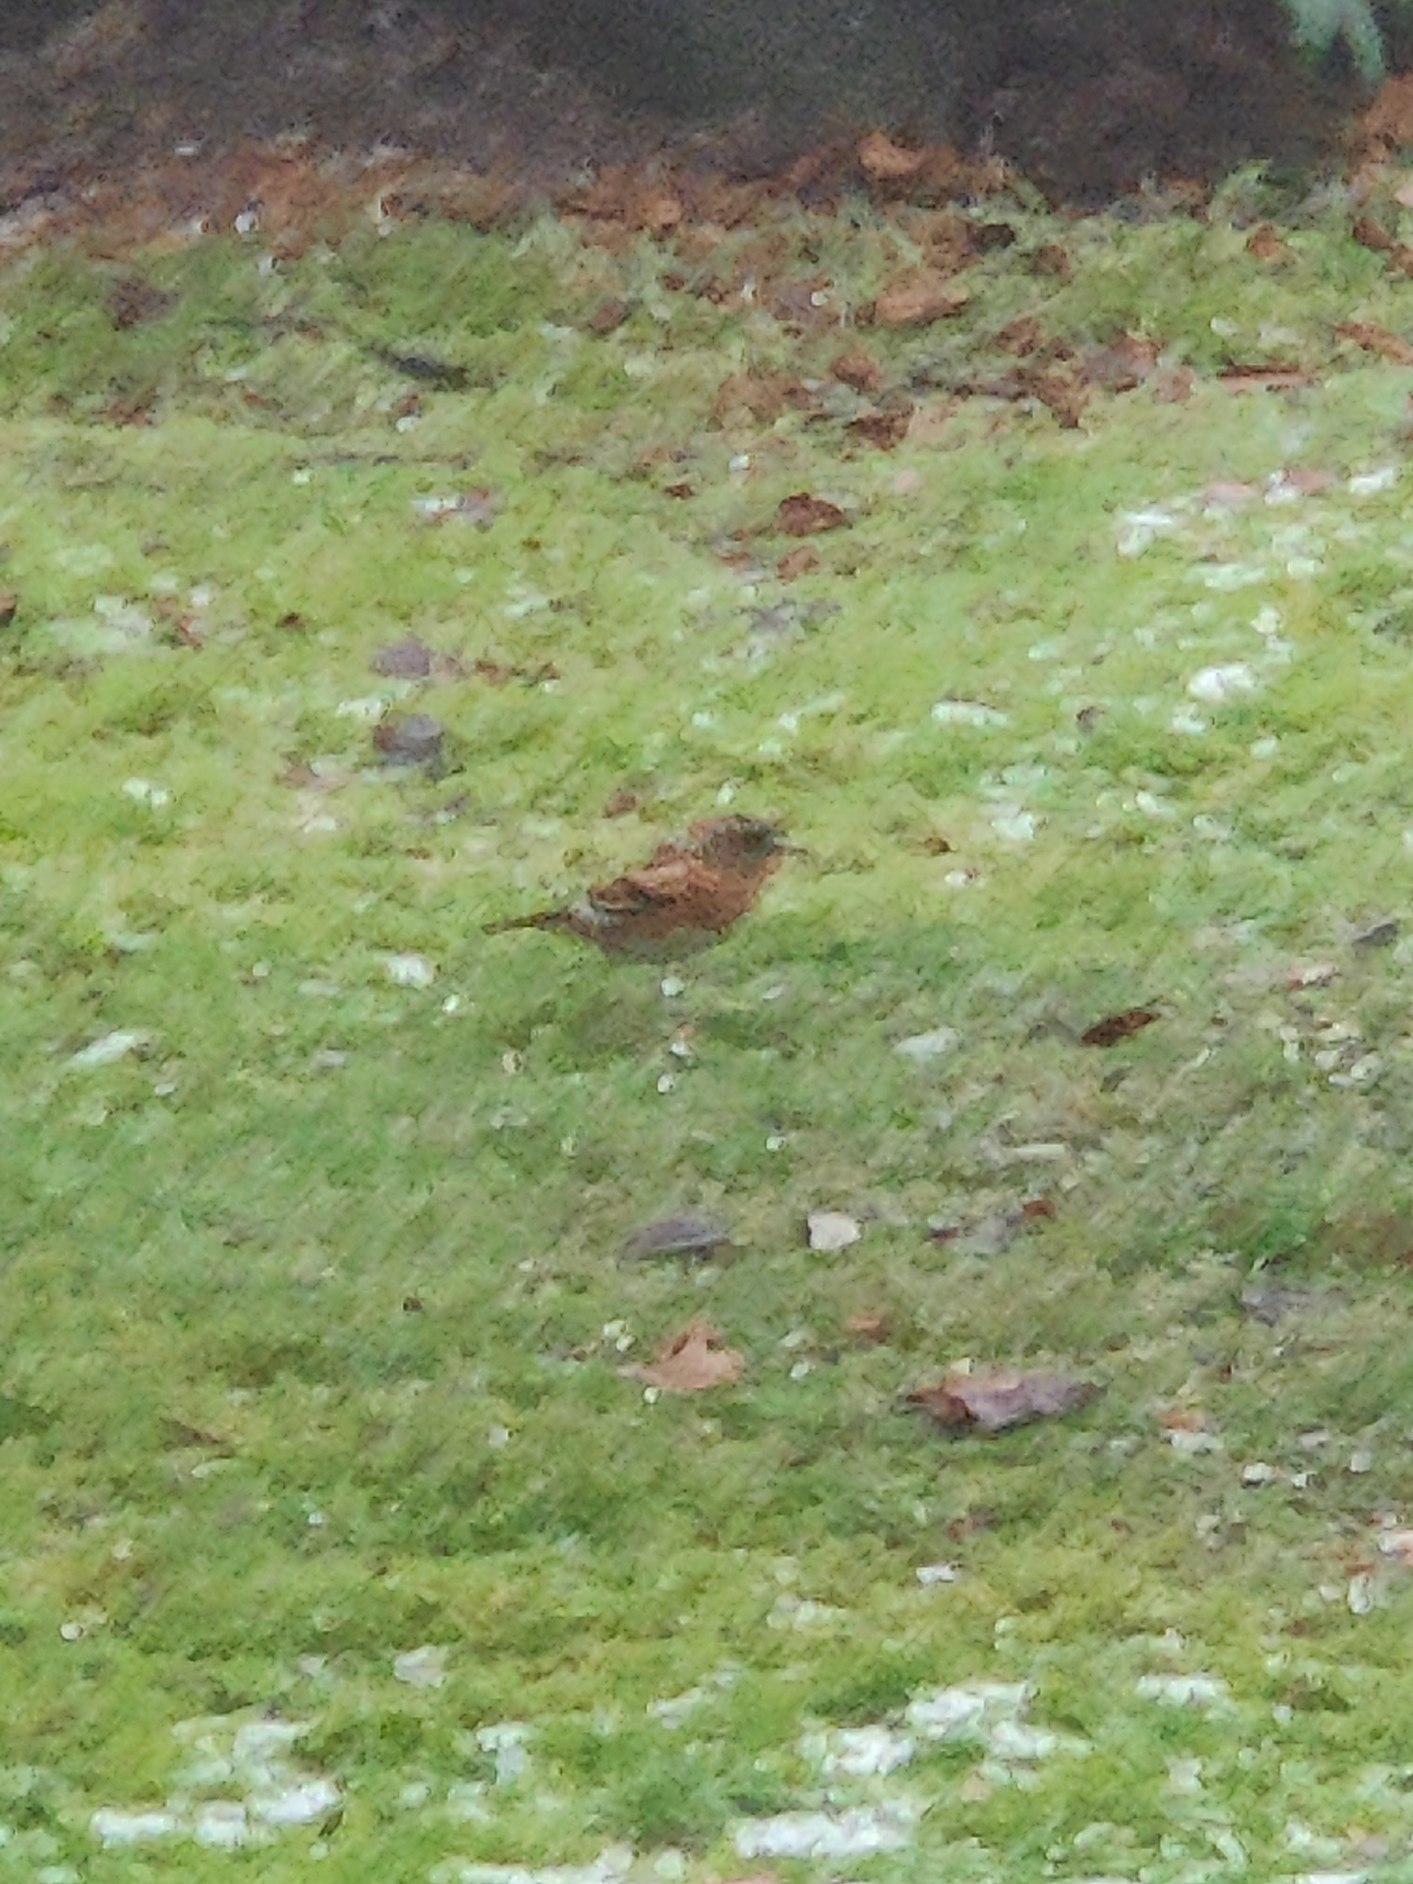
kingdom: Animalia
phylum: Chordata
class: Aves
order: Passeriformes
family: Fringillidae
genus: Fringilla
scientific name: Fringilla montifringilla
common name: Kvækerfinke
